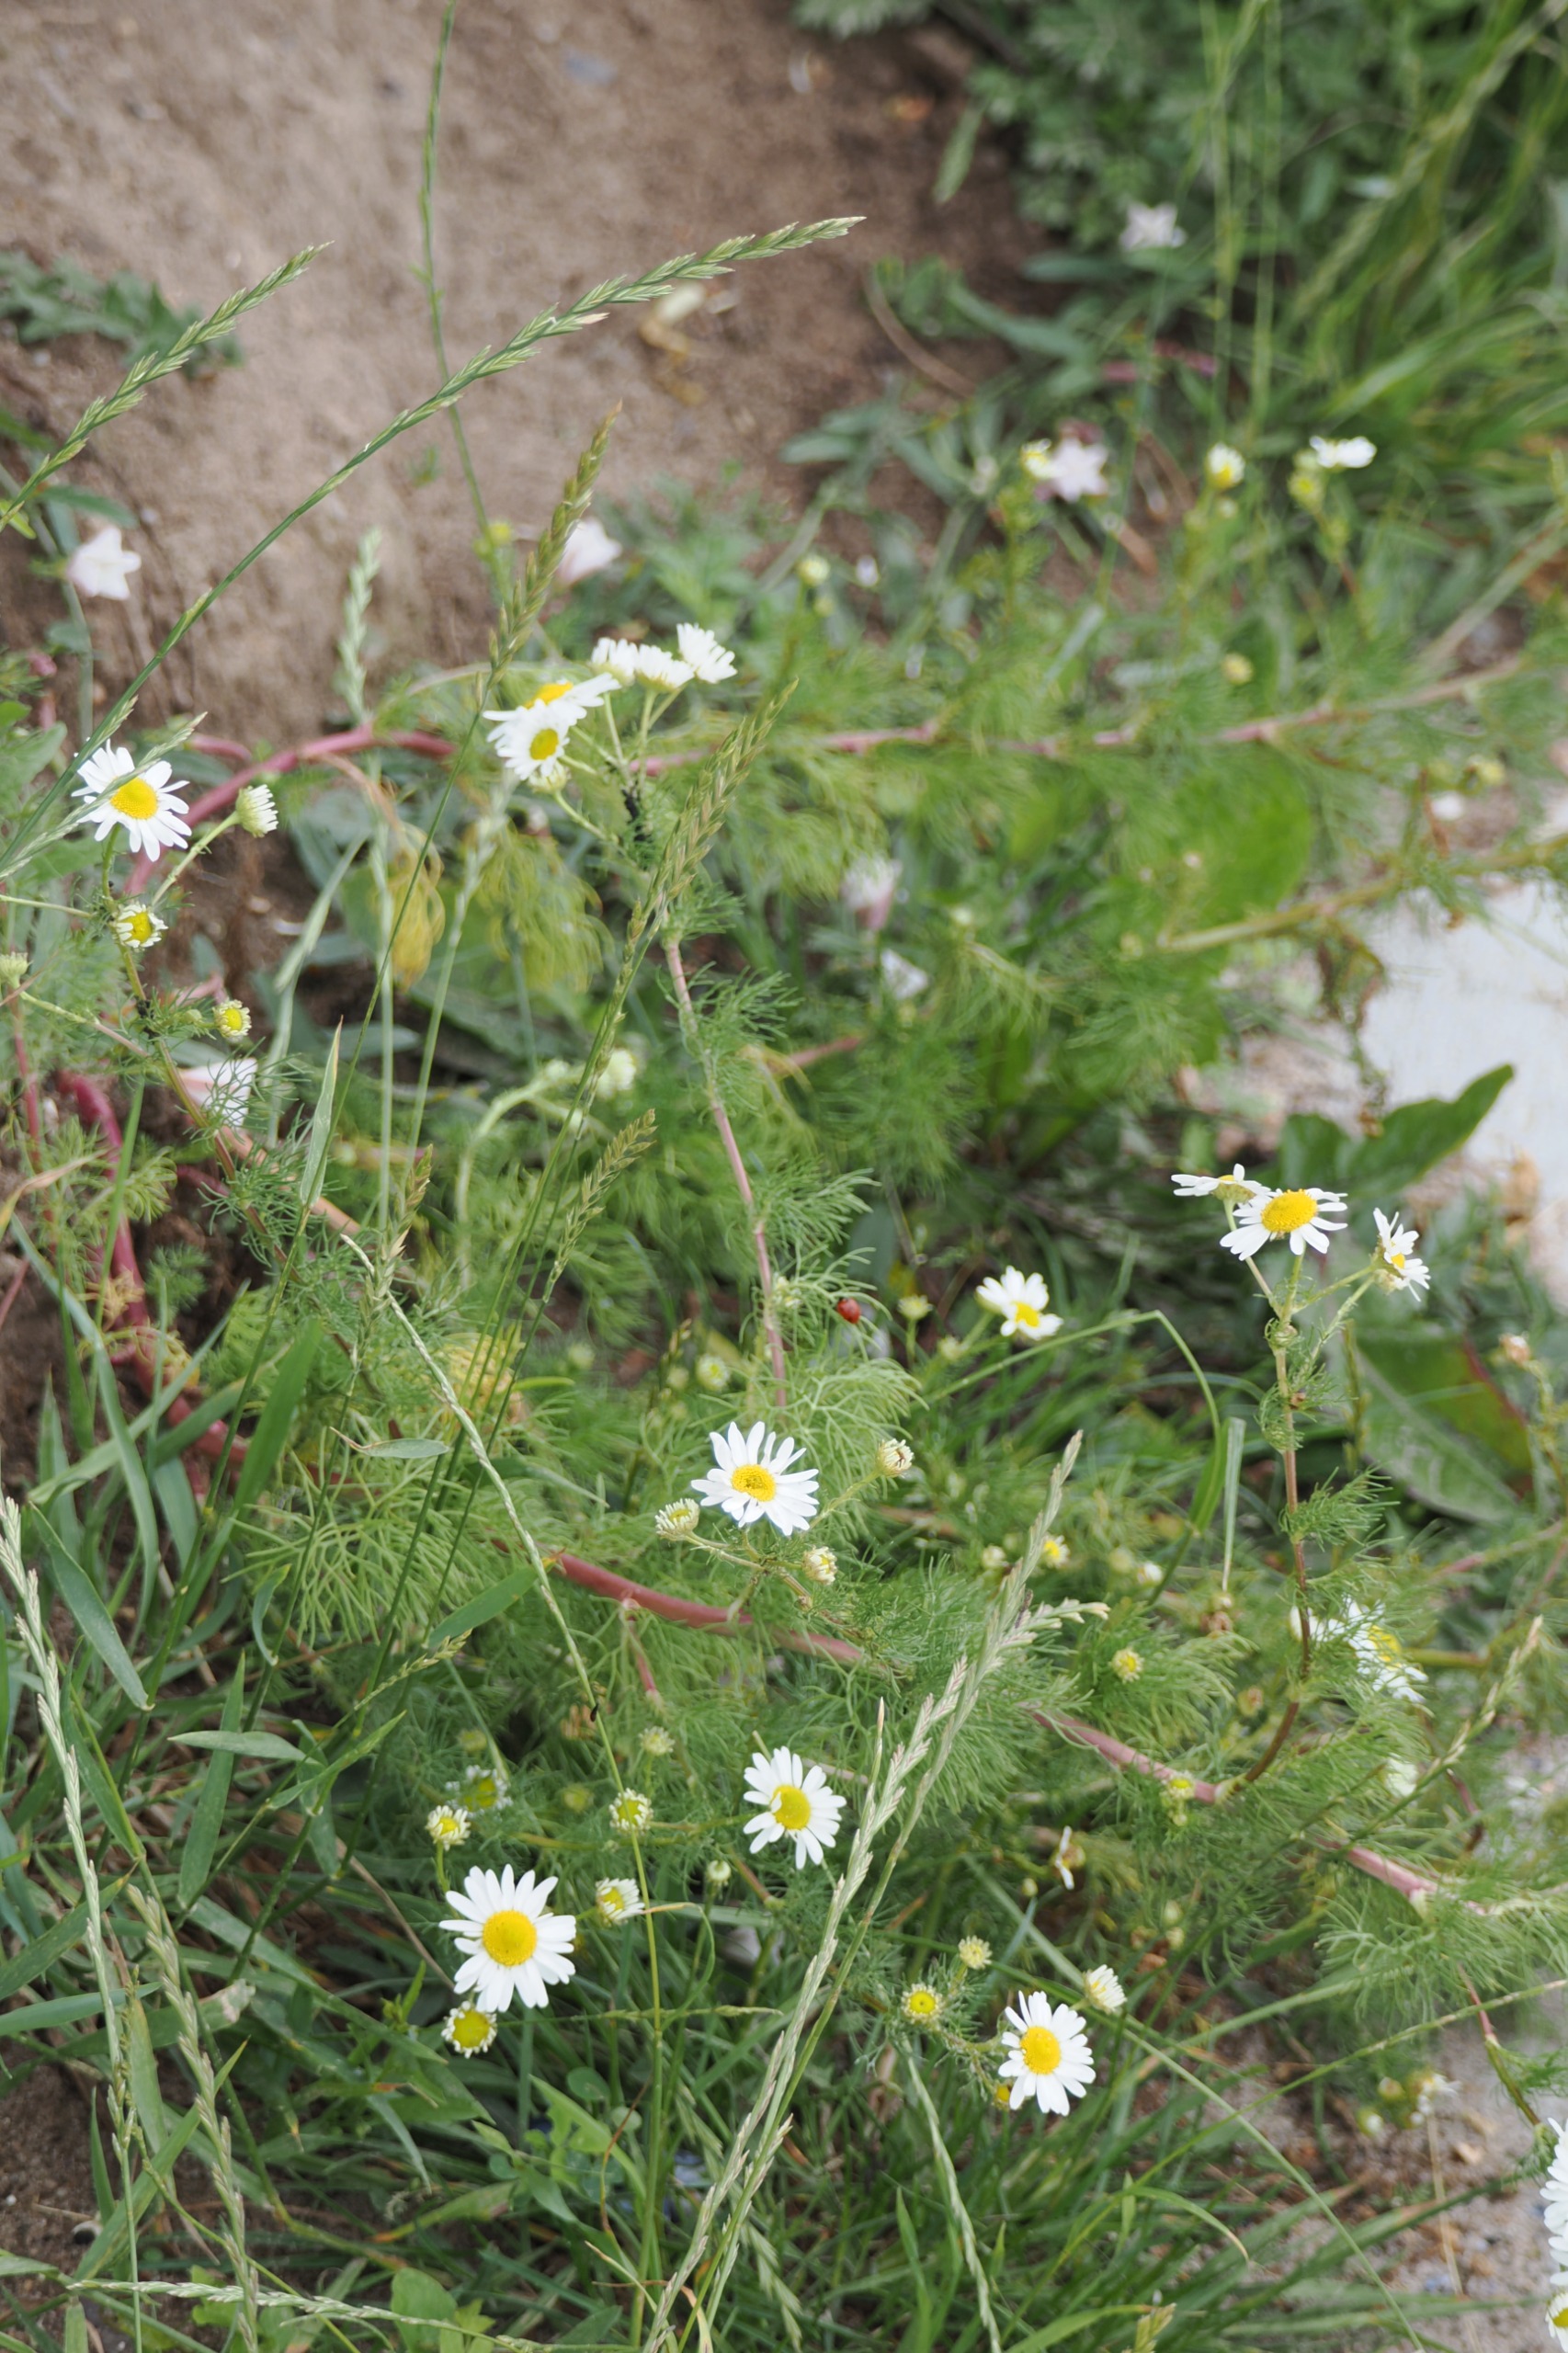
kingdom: Plantae
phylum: Tracheophyta
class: Magnoliopsida
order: Asterales
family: Asteraceae
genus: Tripleurospermum
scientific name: Tripleurospermum inodorum
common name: Lugtløs kamille
